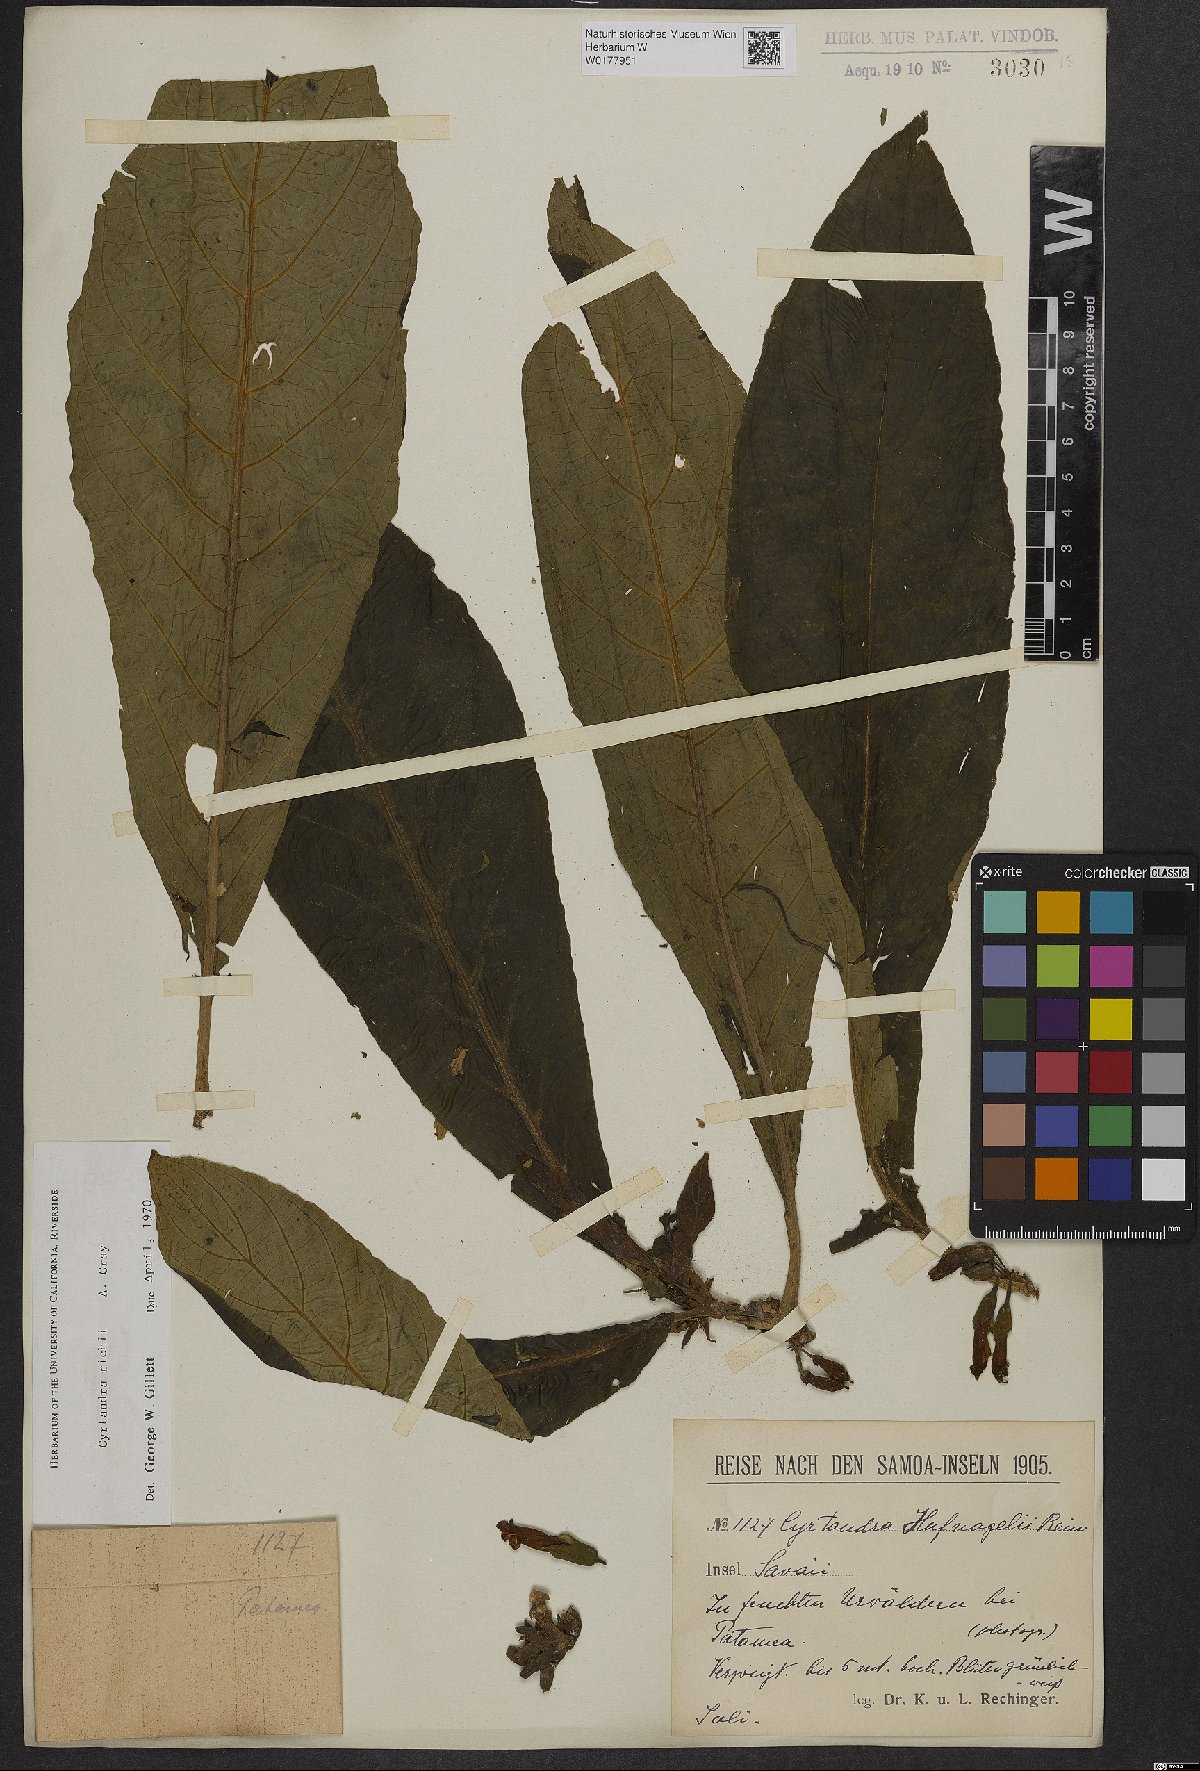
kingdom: Plantae
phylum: Tracheophyta
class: Magnoliopsida
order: Lamiales
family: Gesneriaceae
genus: Cyrtandra
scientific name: Cyrtandra richii
